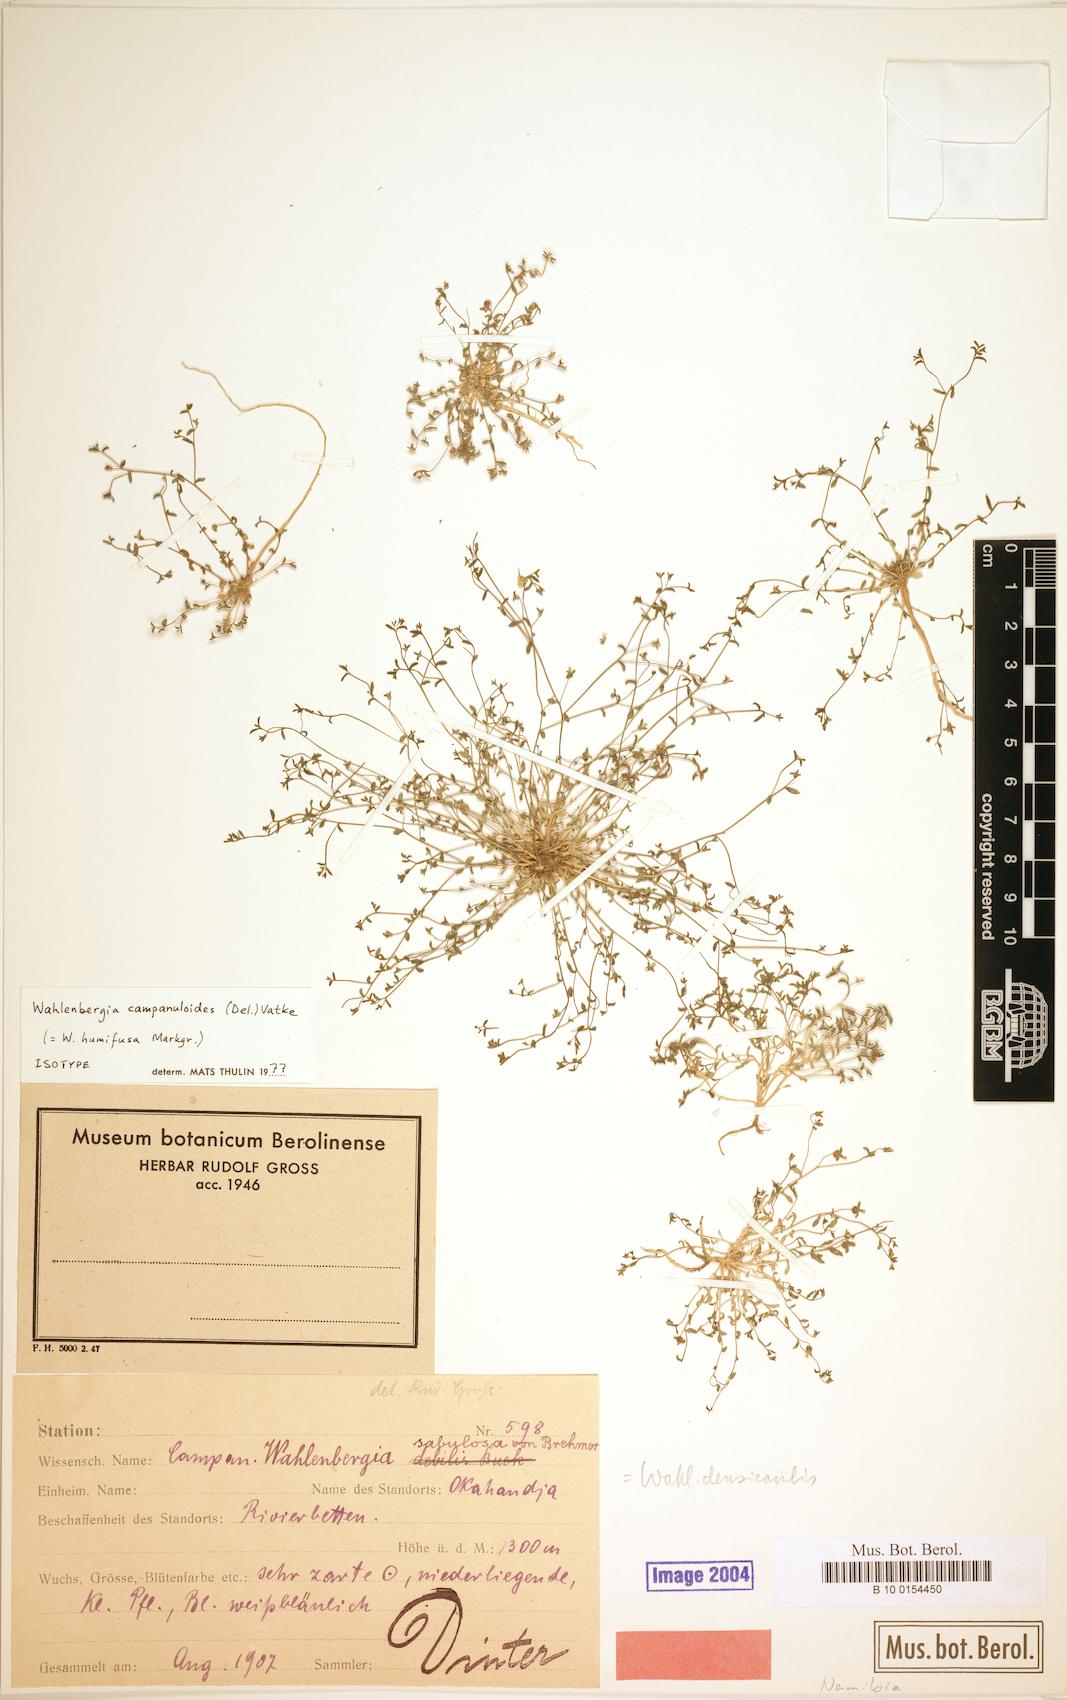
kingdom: Plantae
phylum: Tracheophyta
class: Magnoliopsida
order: Asterales
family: Campanulaceae
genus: Wahlenbergia
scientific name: Wahlenbergia campanuloides
